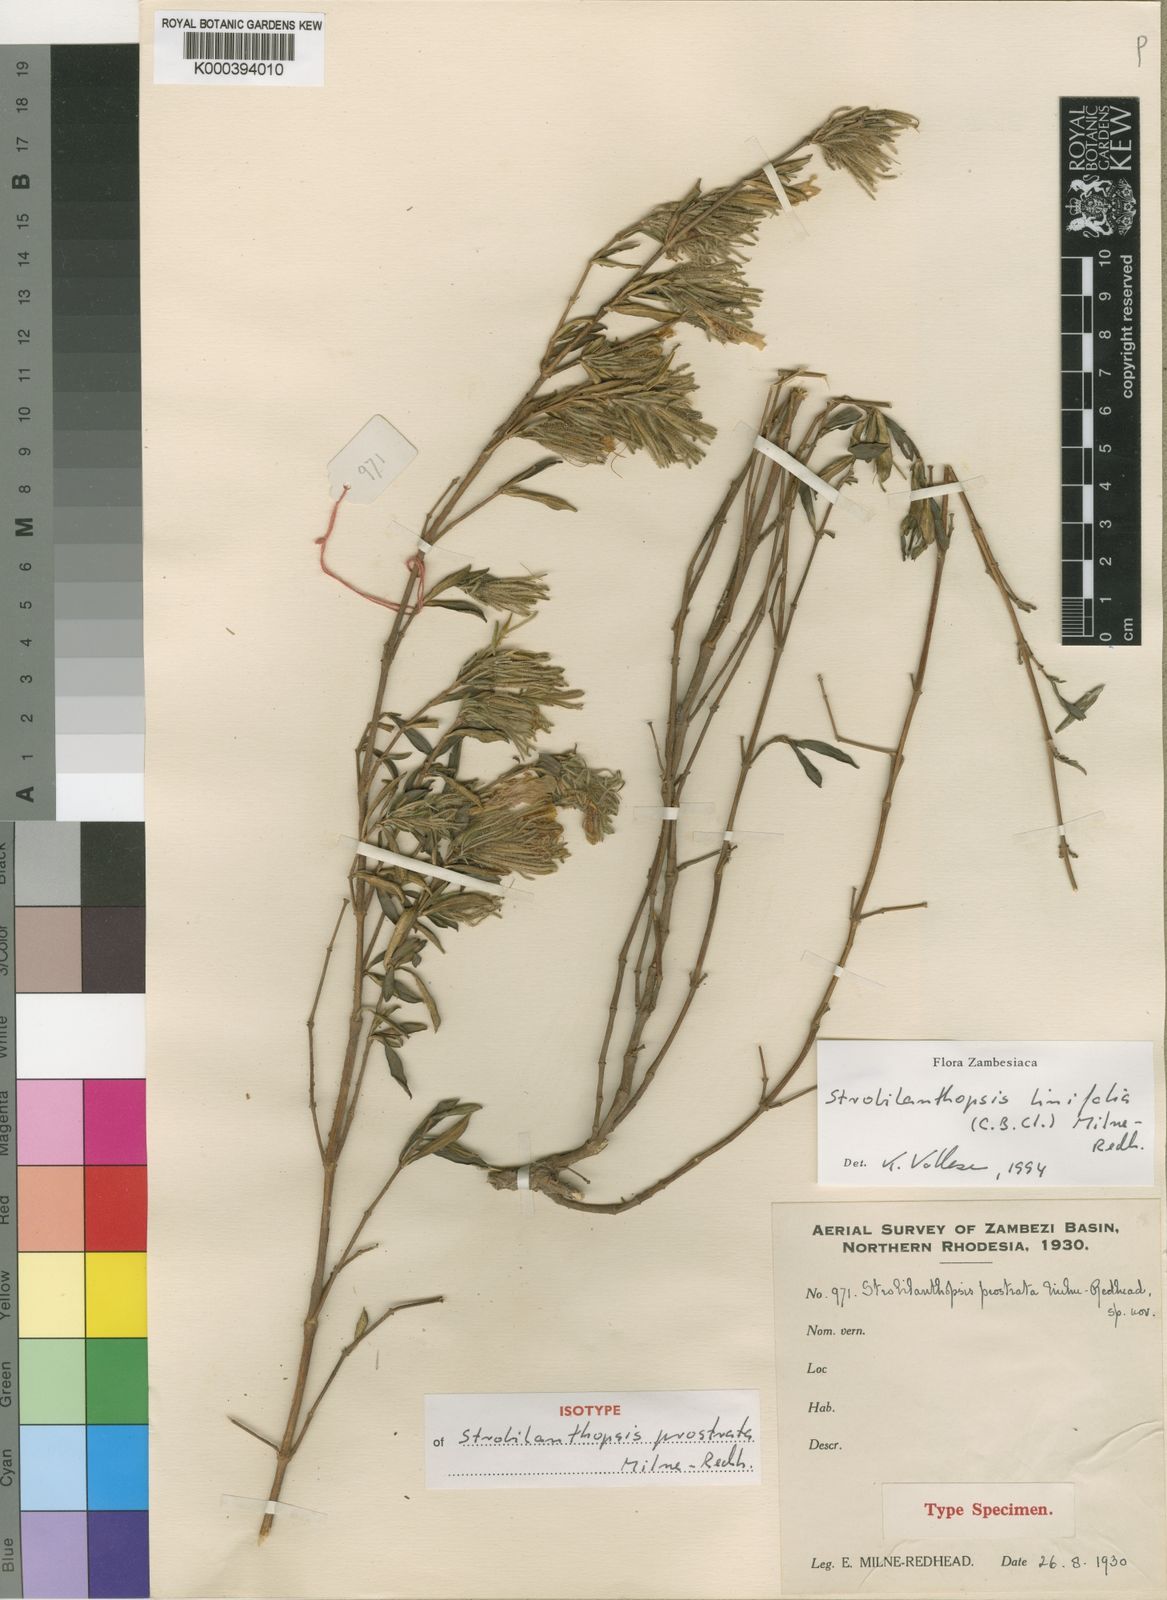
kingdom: Plantae
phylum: Tracheophyta
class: Magnoliopsida
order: Lamiales
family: Acanthaceae
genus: Strobilanthopsis
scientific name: Strobilanthopsis linifolia
